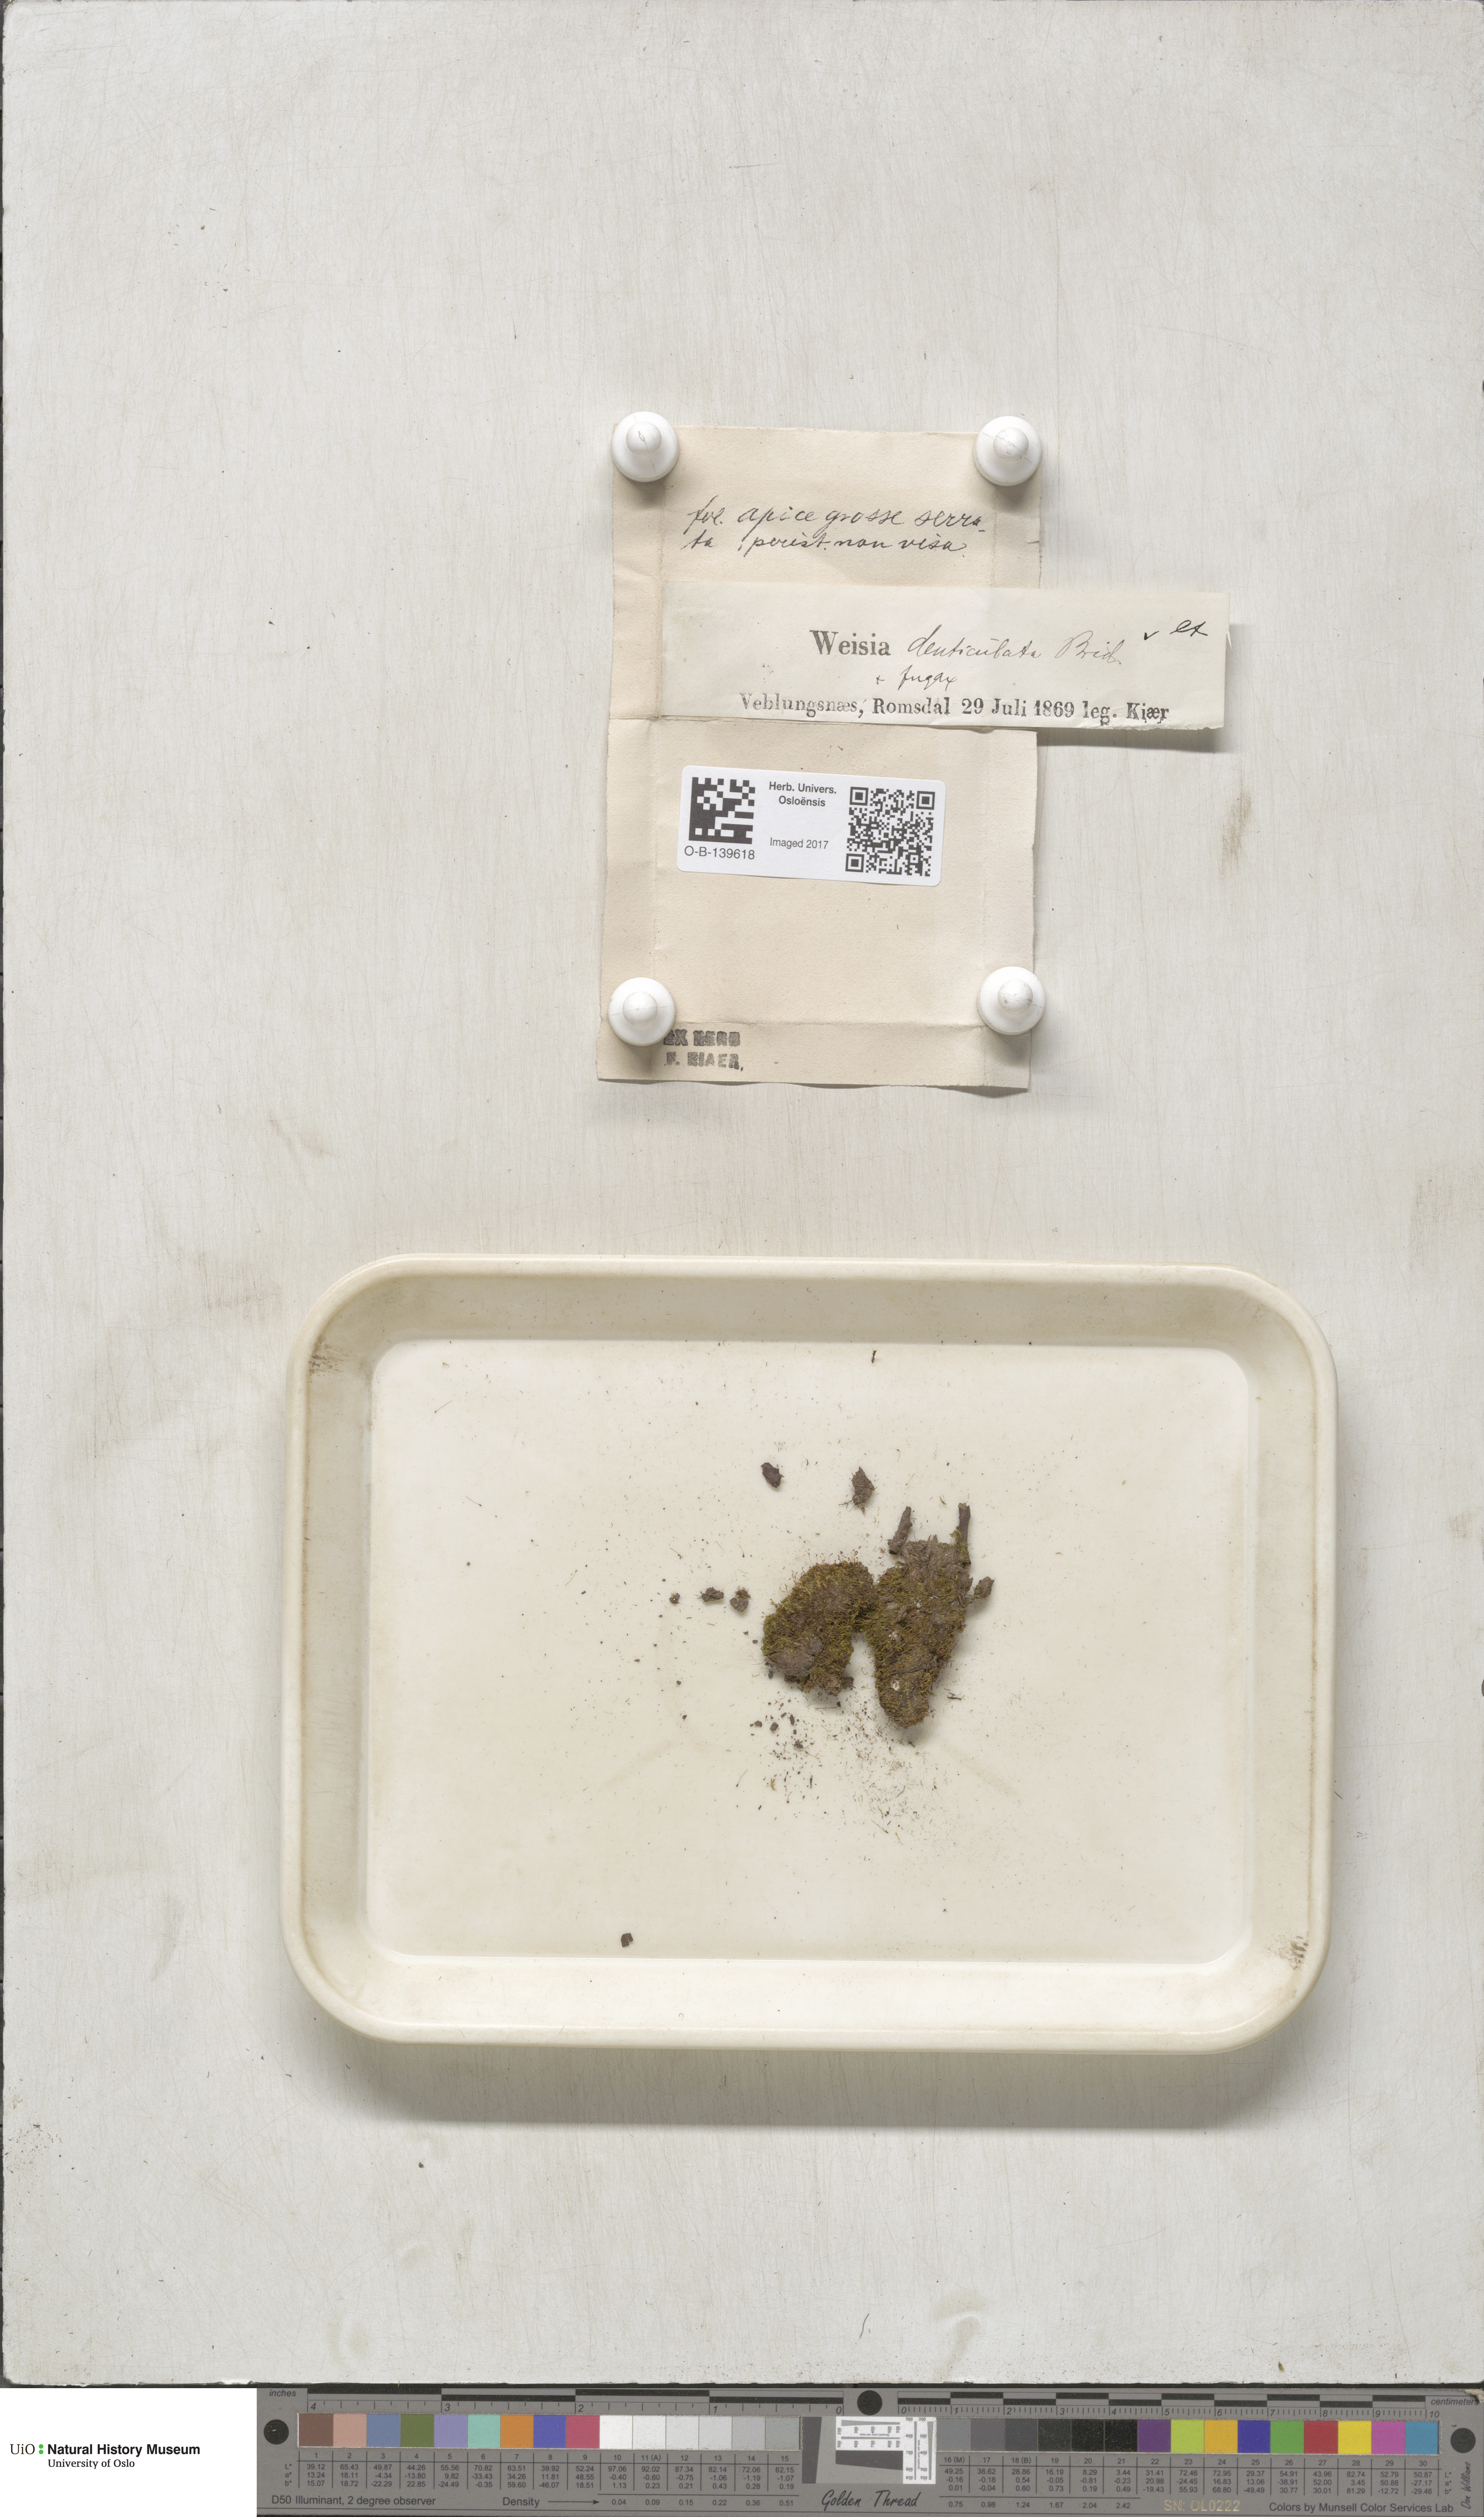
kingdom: Plantae
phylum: Bryophyta
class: Bryopsida
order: Dicranales
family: Rhabdoweisiaceae
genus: Rhabdoweisia
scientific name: Rhabdoweisia crispata
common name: Fine-toothed streak moss
